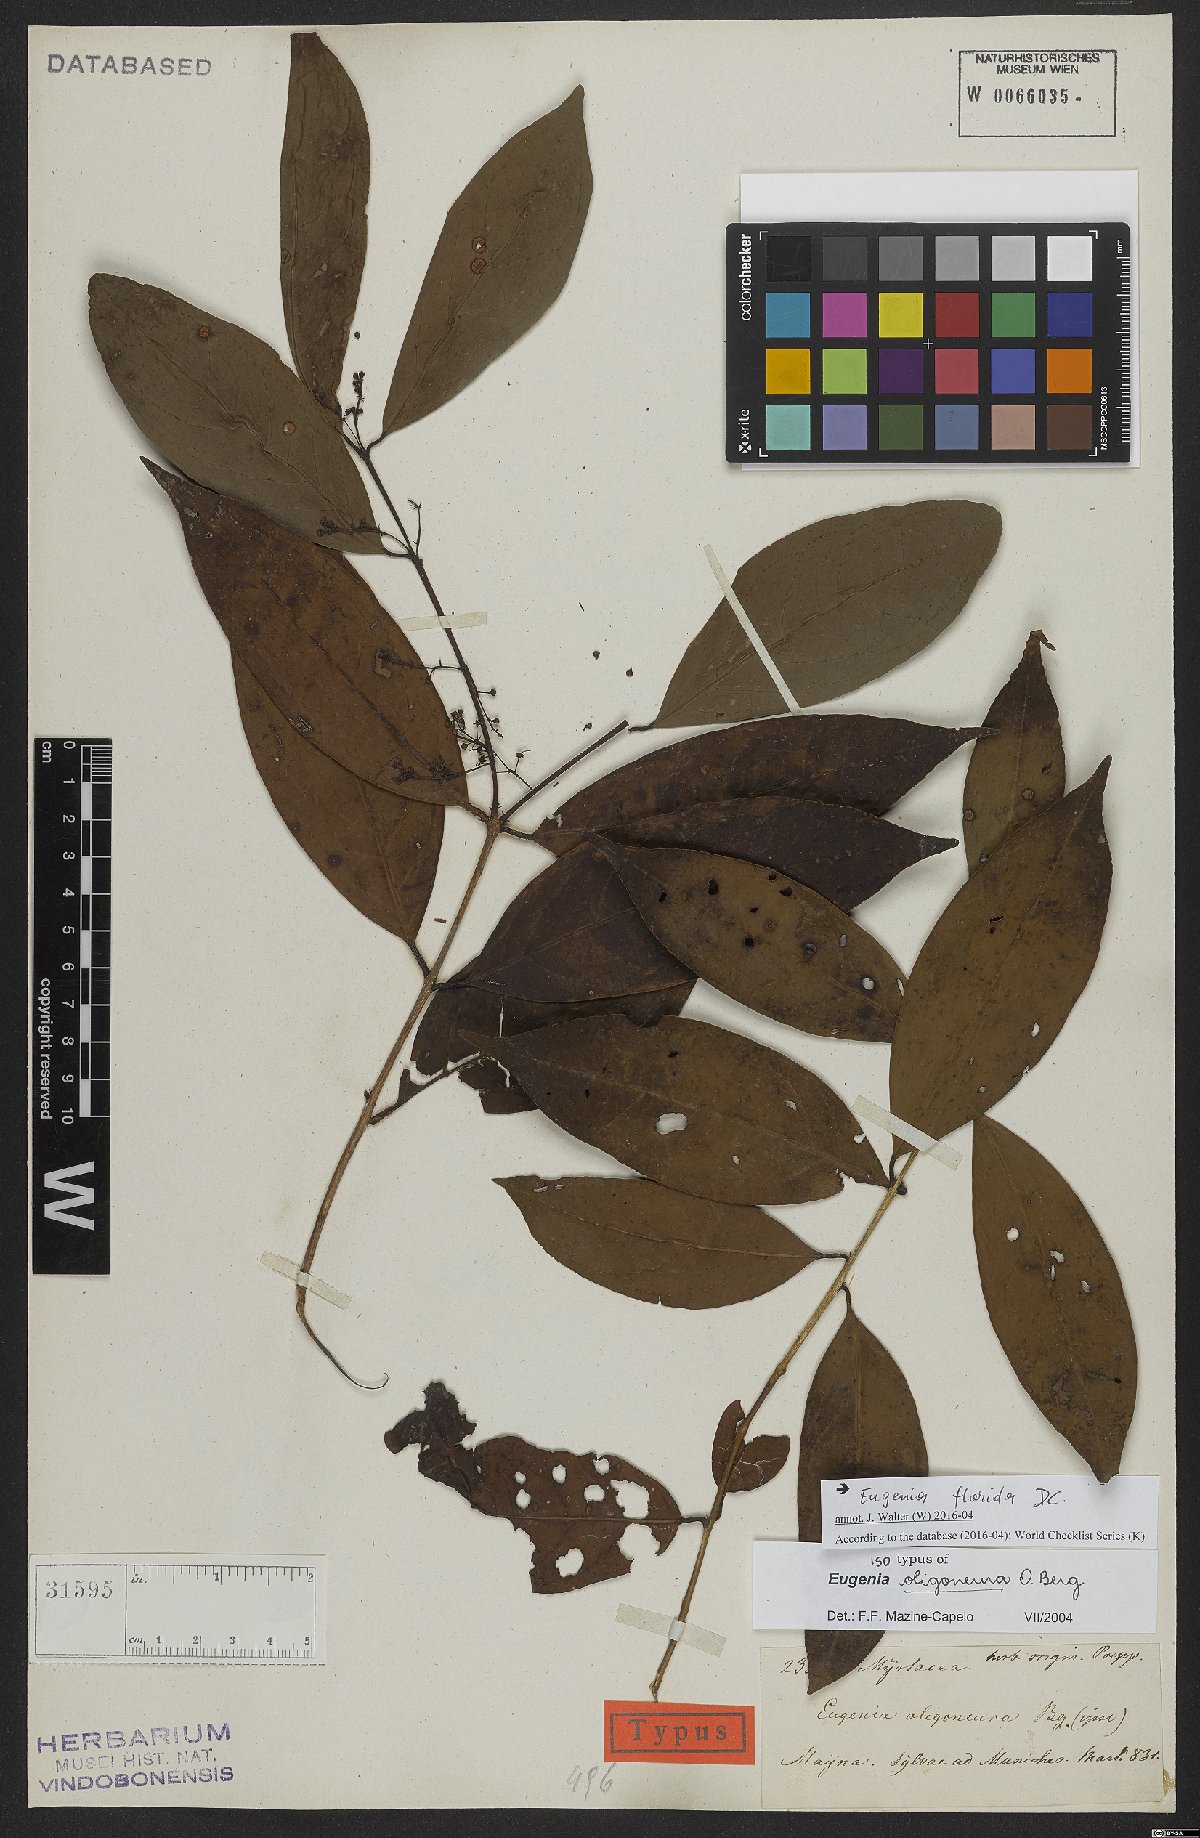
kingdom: Plantae
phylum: Tracheophyta
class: Magnoliopsida
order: Myrtales
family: Myrtaceae
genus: Eugenia
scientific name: Eugenia florida
